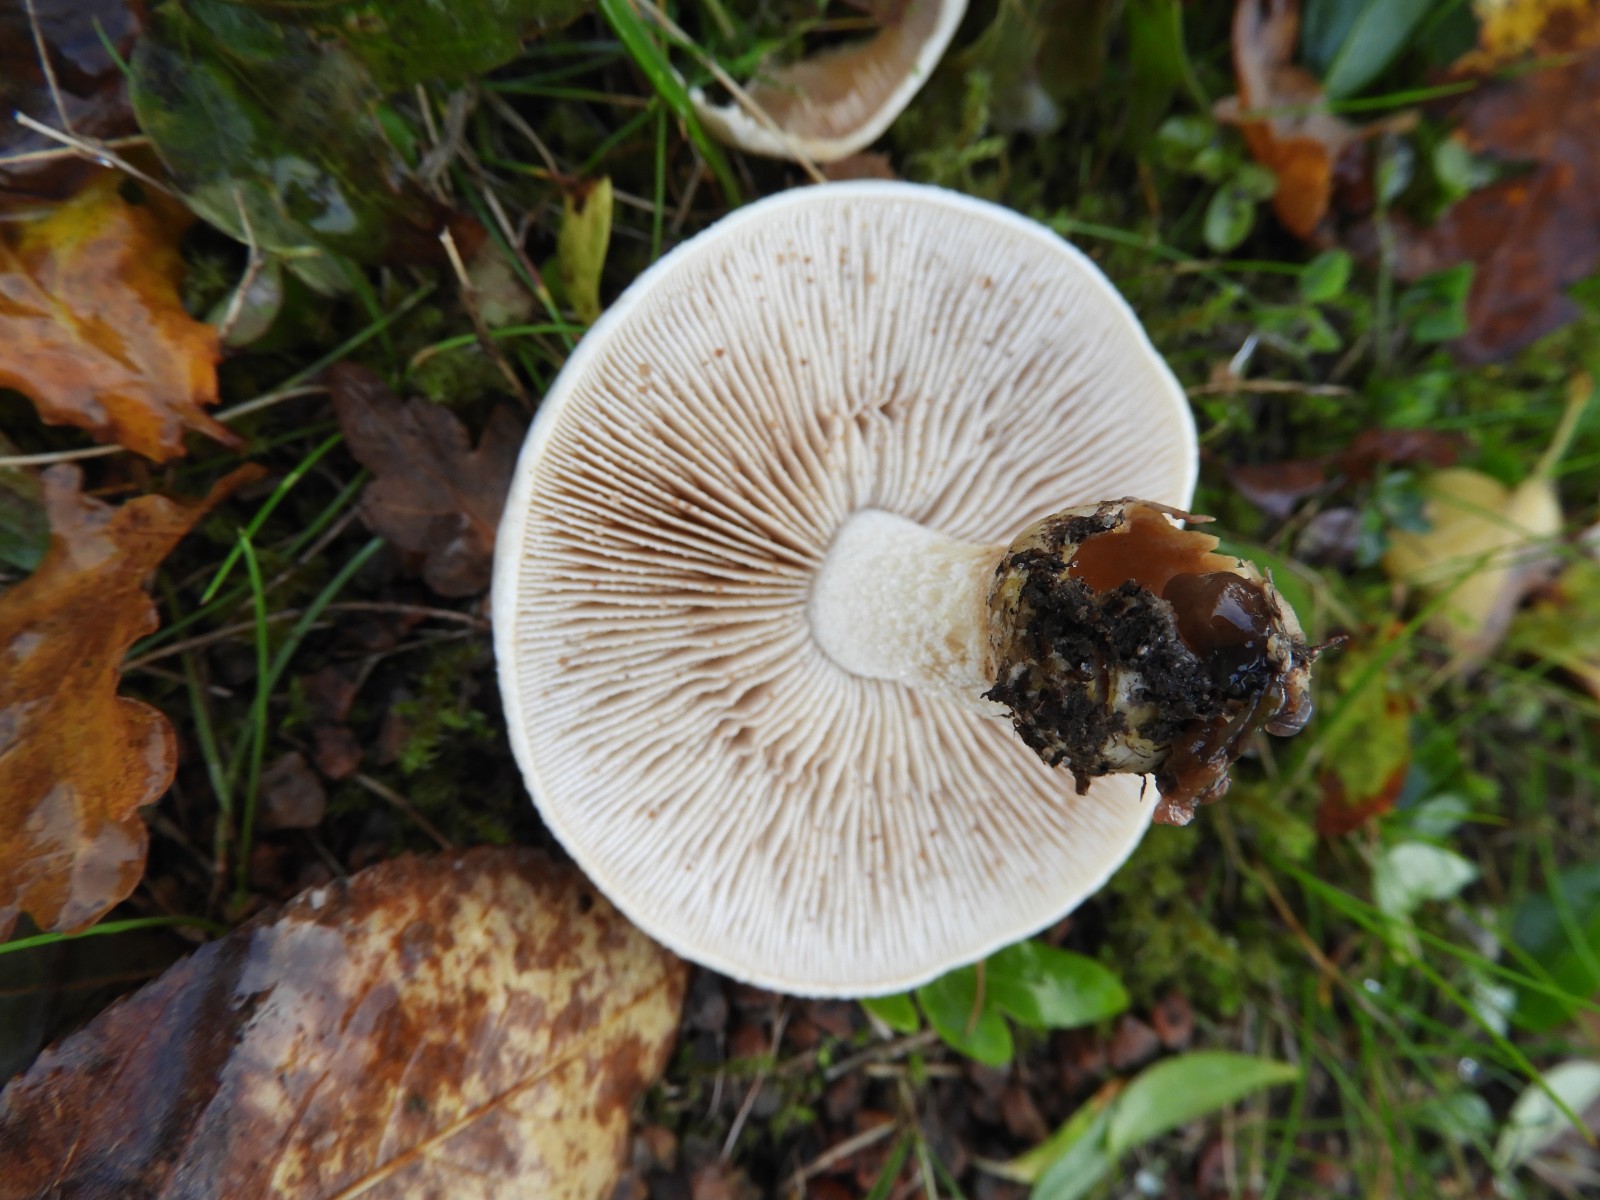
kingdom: Fungi
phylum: Basidiomycota
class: Agaricomycetes
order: Agaricales
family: Hymenogastraceae
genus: Hebeloma
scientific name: Hebeloma crustuliniforme
